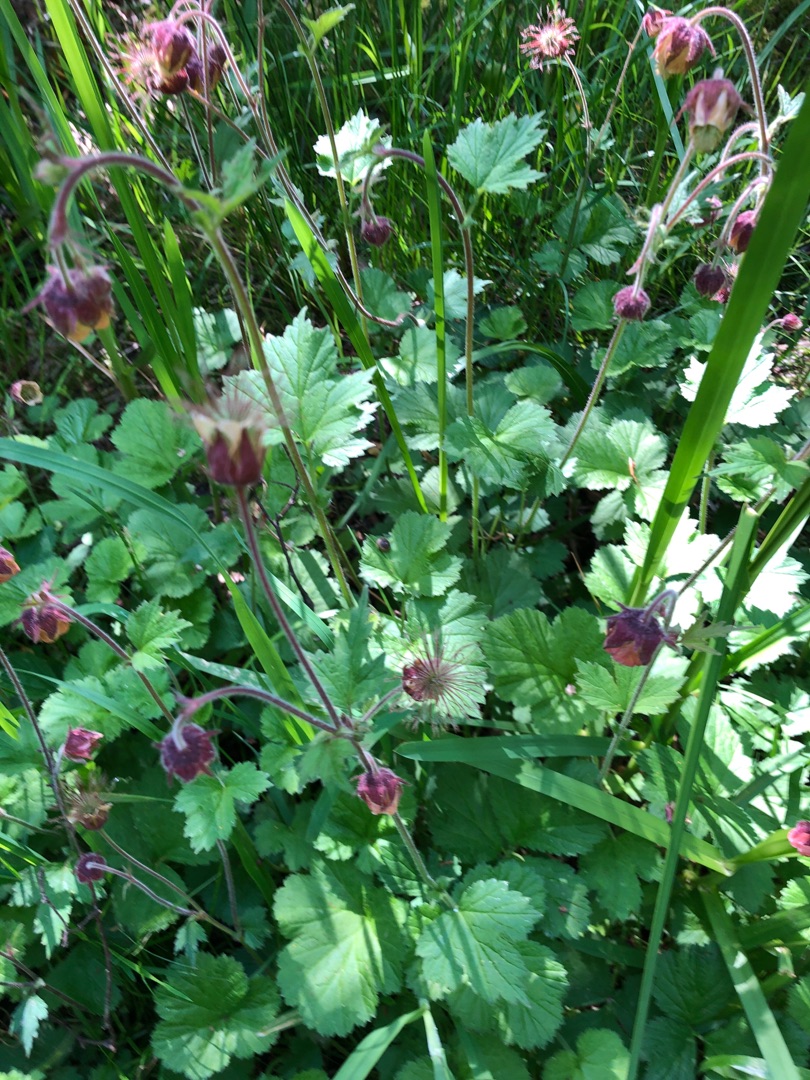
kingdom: Plantae
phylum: Tracheophyta
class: Magnoliopsida
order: Rosales
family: Rosaceae
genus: Geum
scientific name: Geum rivale
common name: Eng-nellikerod
